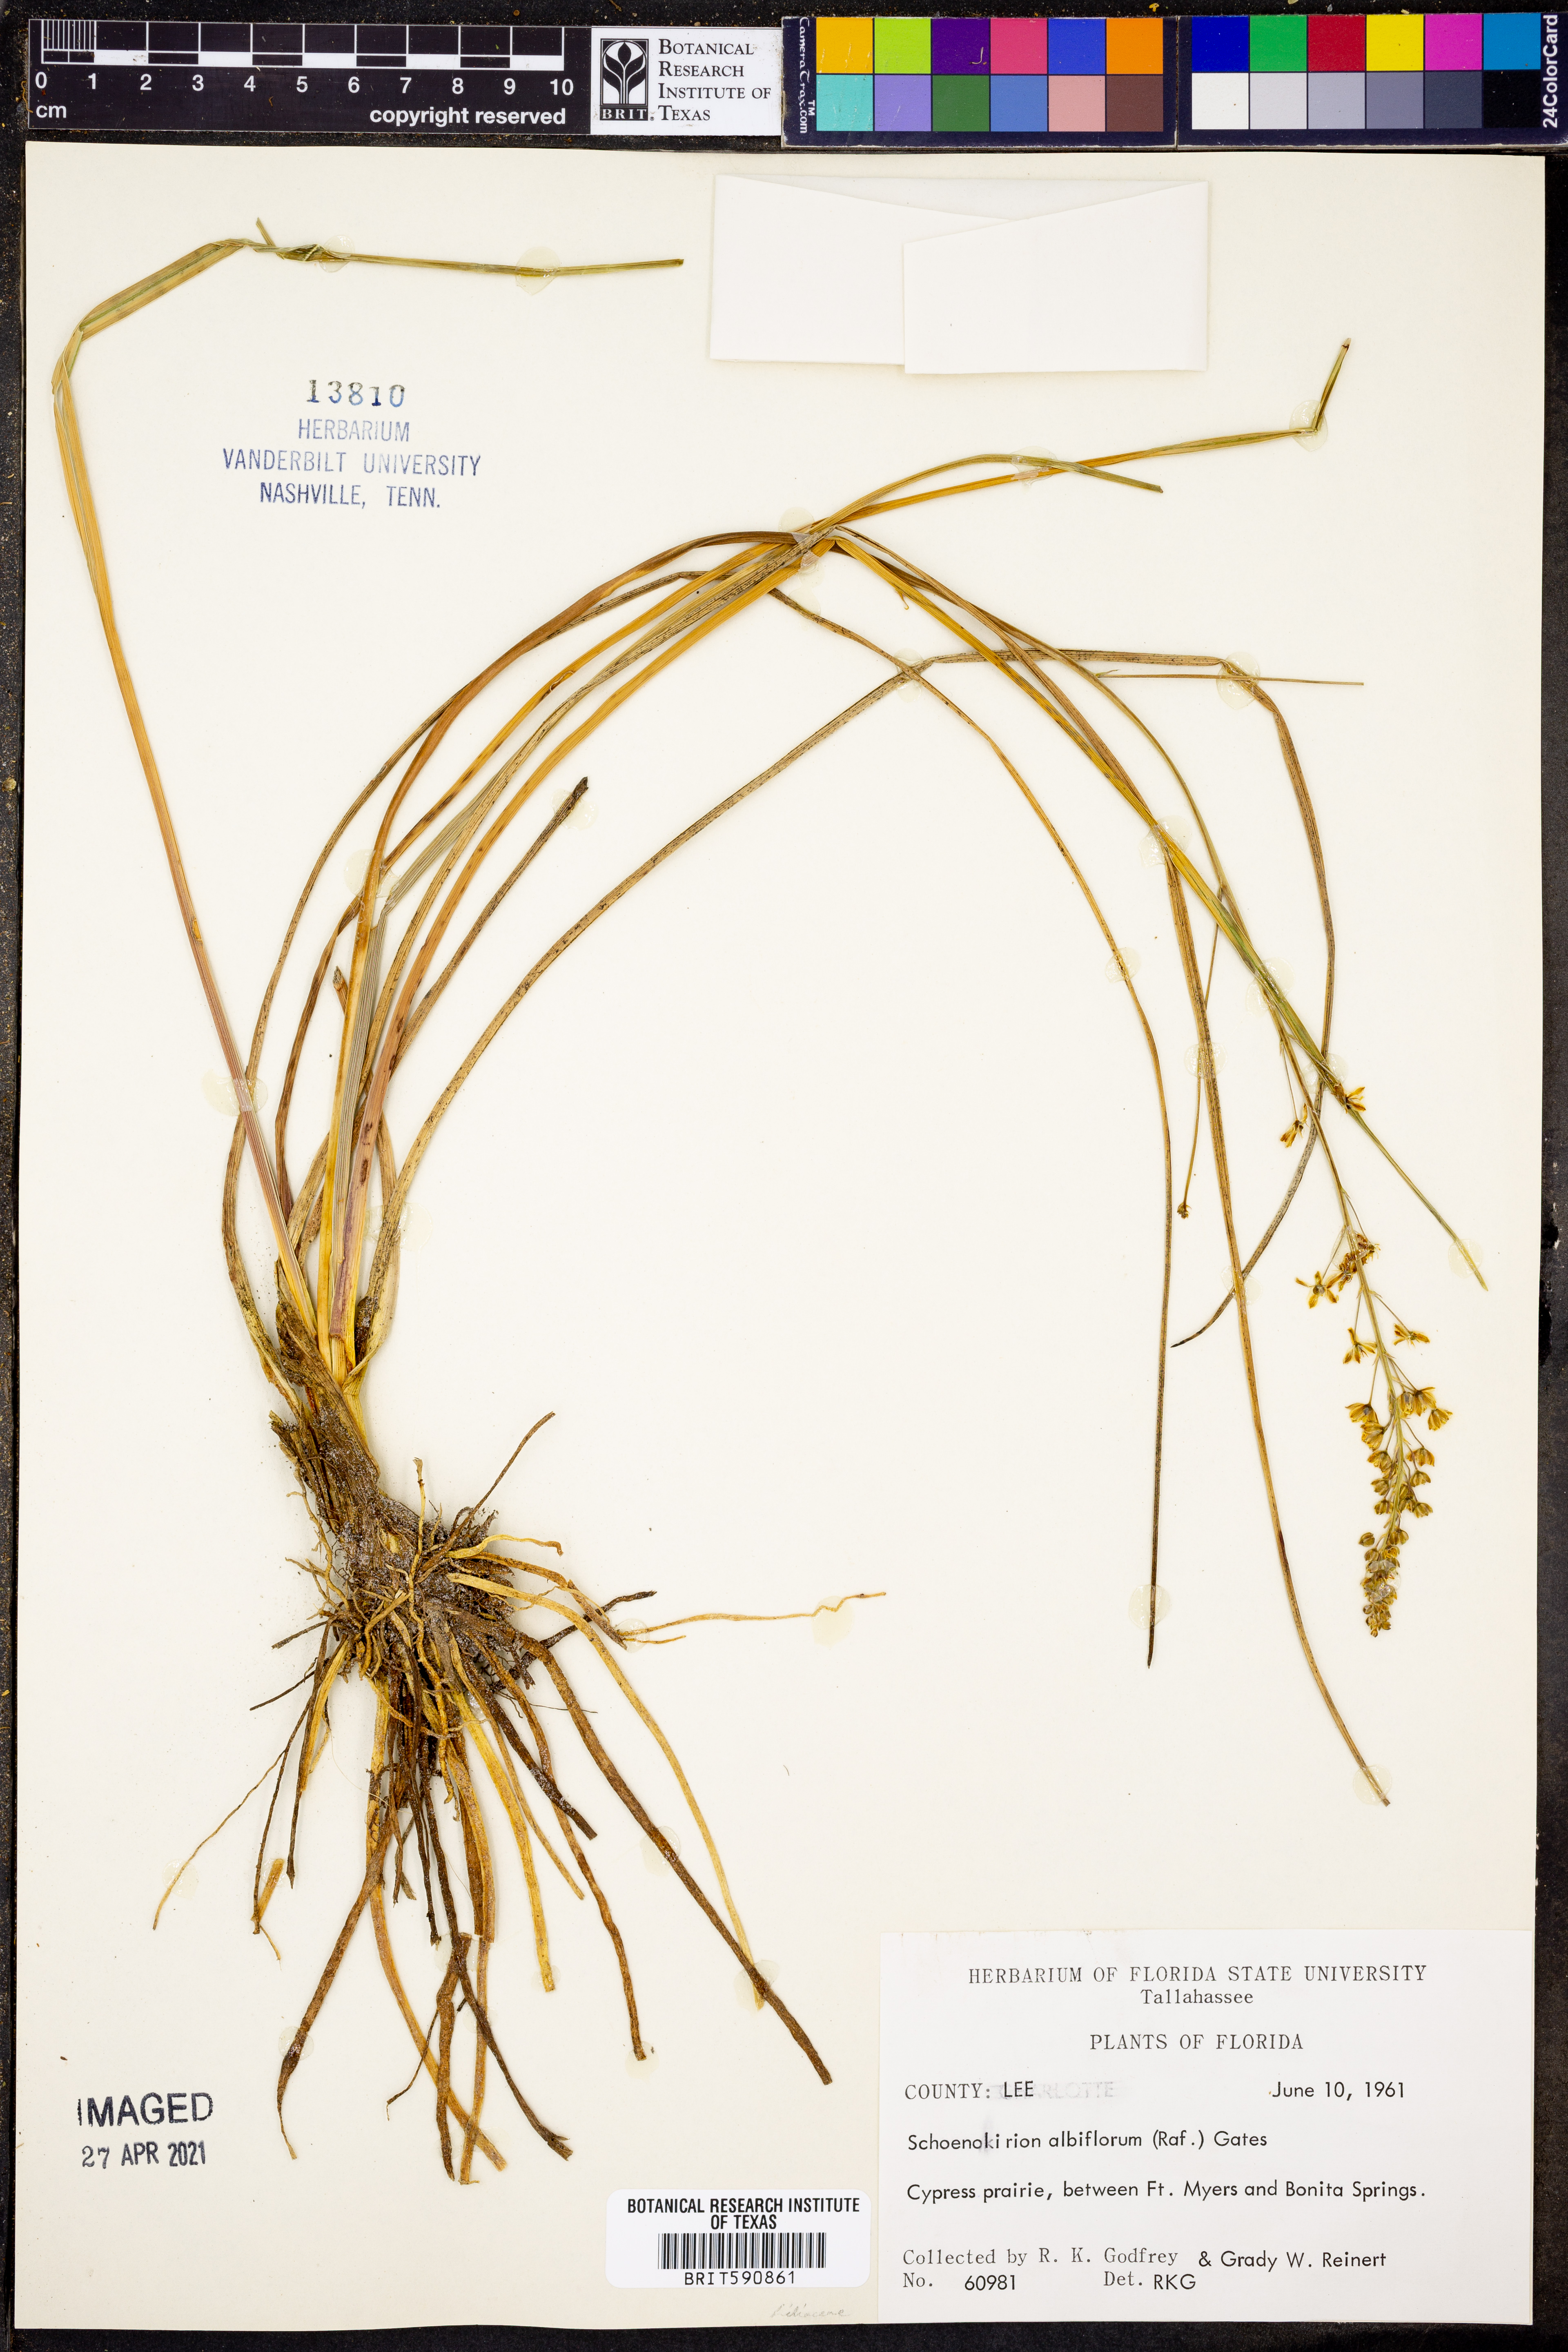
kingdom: Plantae
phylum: Tracheophyta
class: Liliopsida
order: Asparagales
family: Asparagaceae
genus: Schoenolirion
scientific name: Schoenolirion albiflorum
